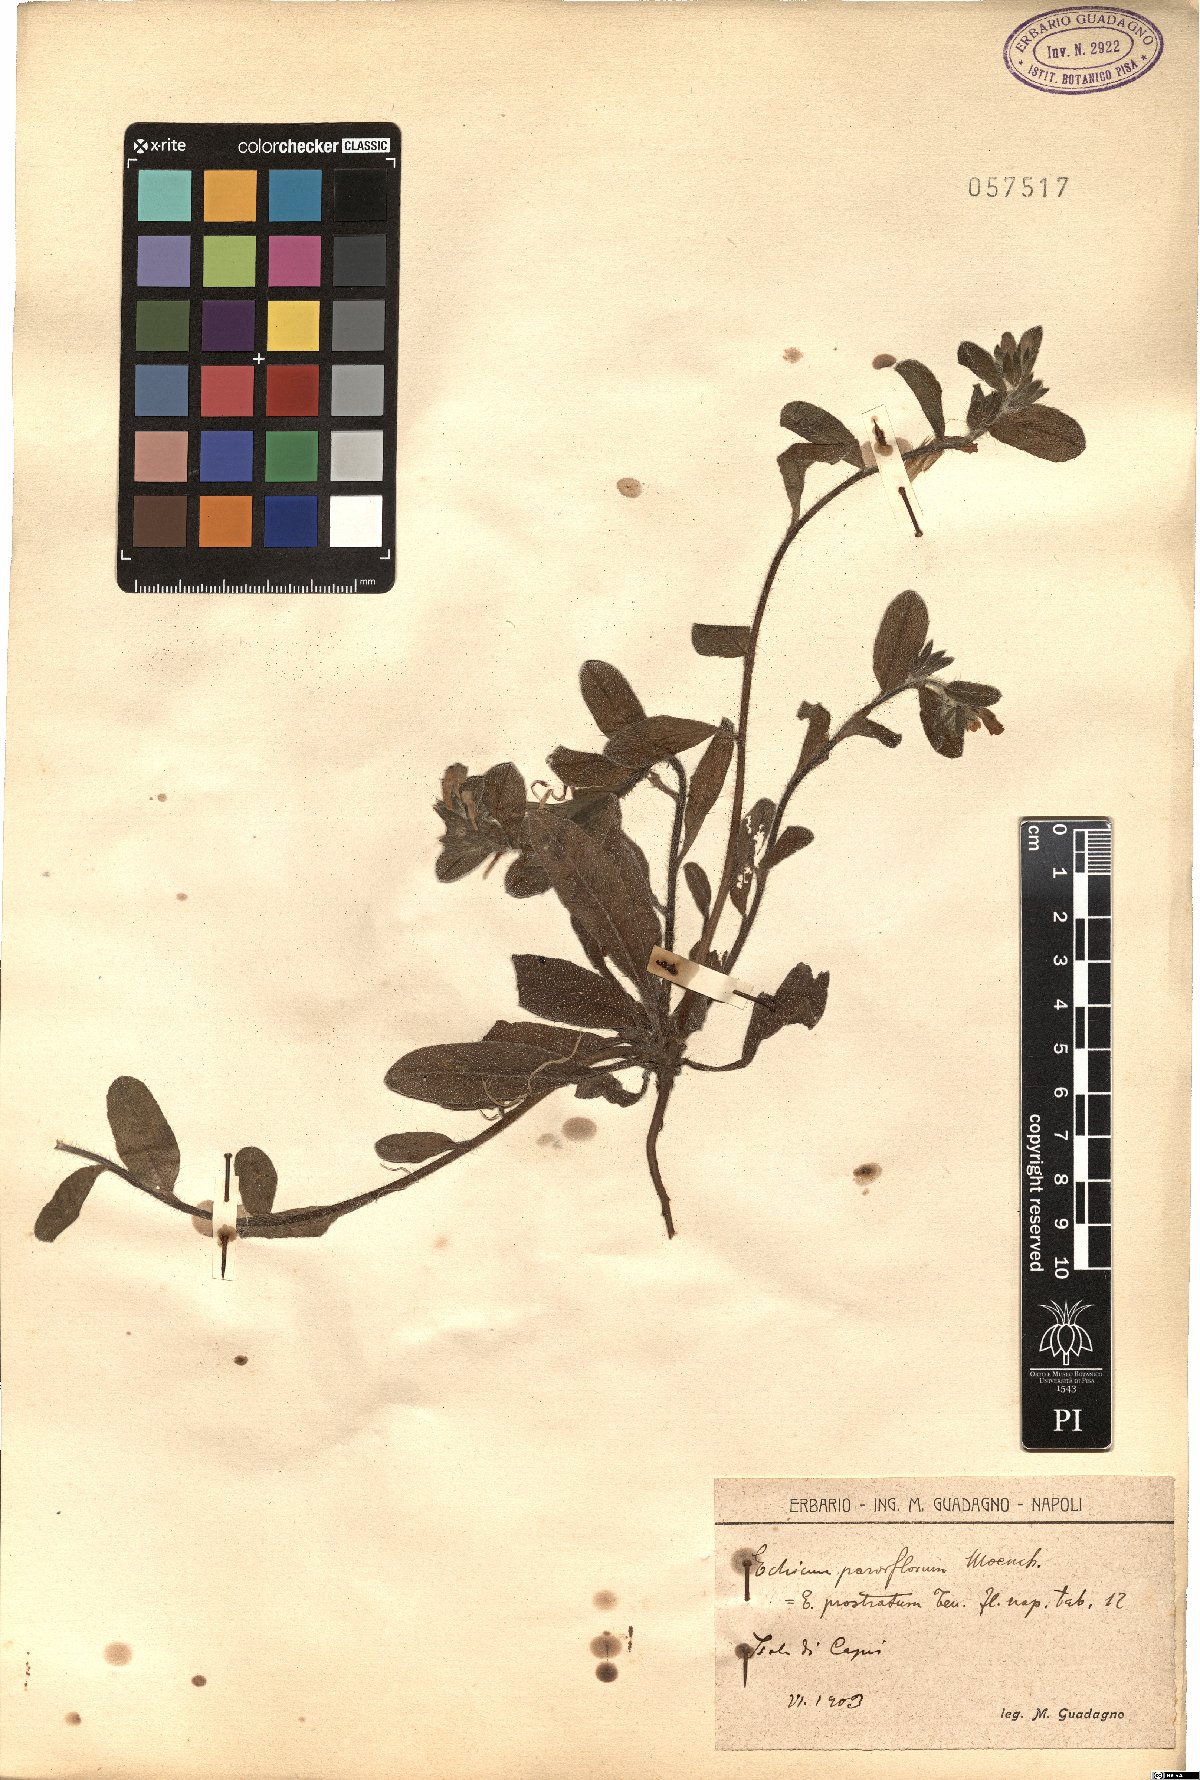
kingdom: Plantae
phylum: Tracheophyta
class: Magnoliopsida
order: Boraginales
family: Boraginaceae
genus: Echium
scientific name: Echium parviflorum
